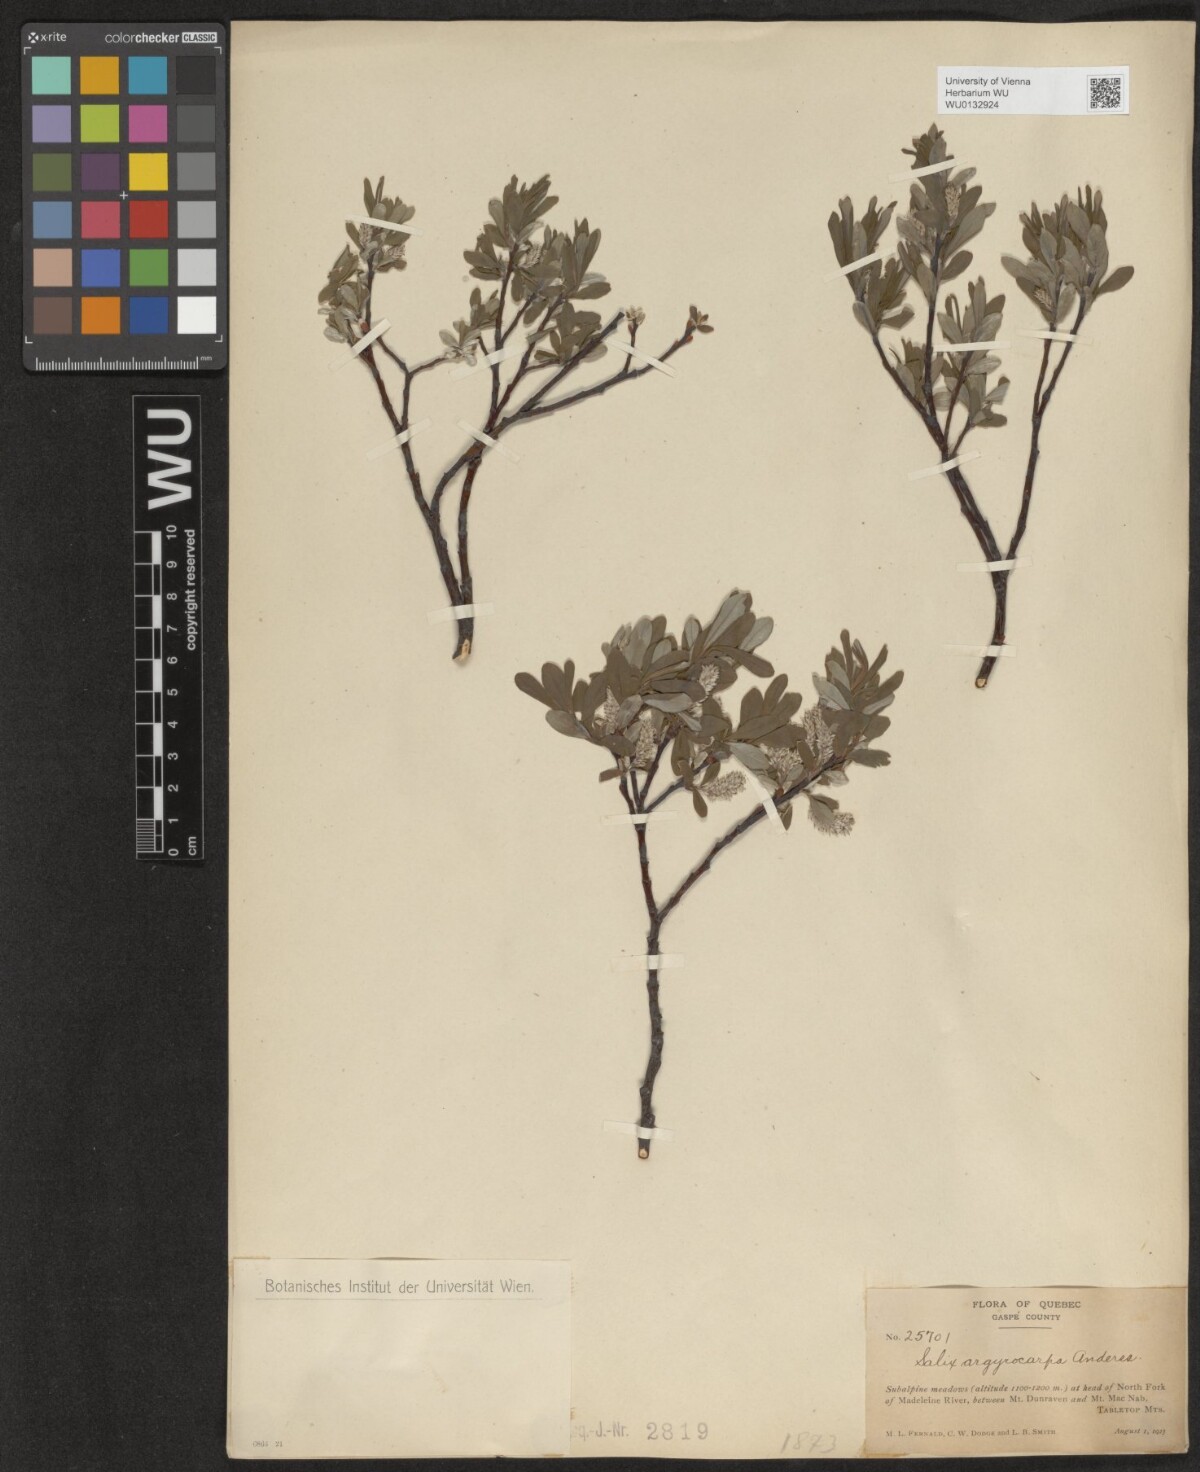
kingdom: Plantae
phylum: Tracheophyta
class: Magnoliopsida
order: Malpighiales
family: Salicaceae
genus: Salix
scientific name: Salix argyrocarpa
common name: Labrador willow
